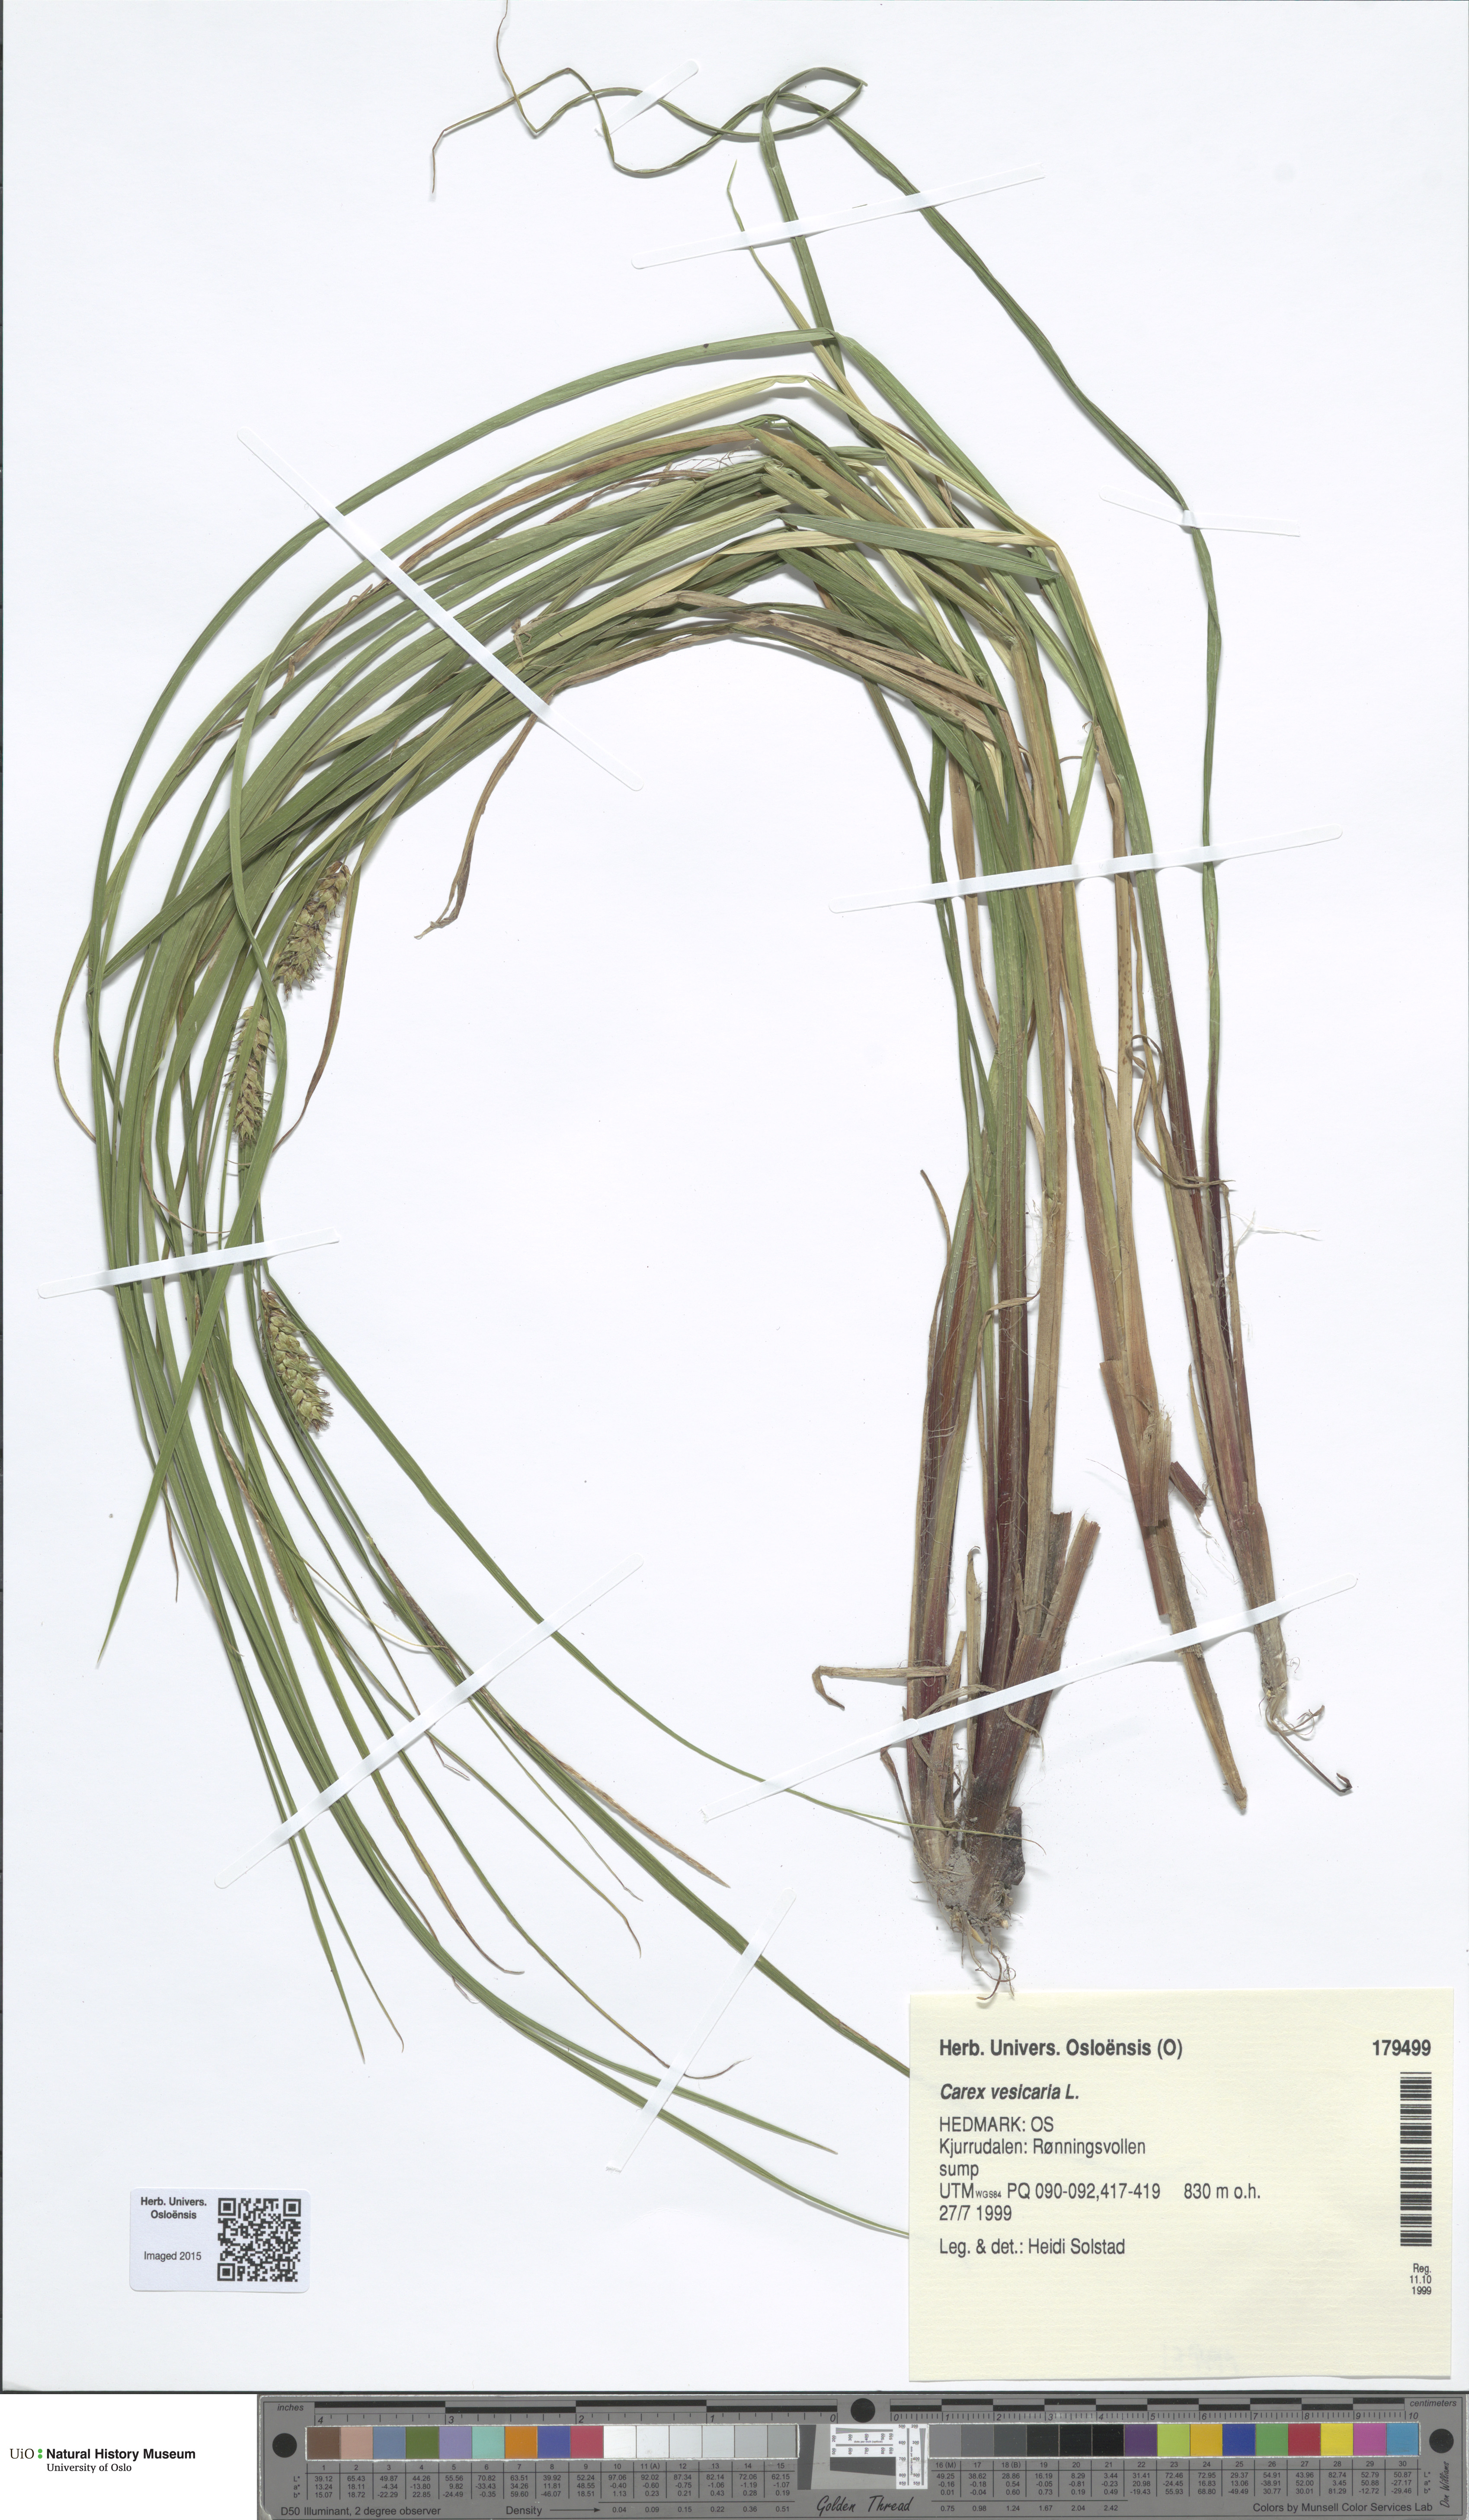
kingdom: Plantae
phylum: Tracheophyta
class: Liliopsida
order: Poales
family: Cyperaceae
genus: Carex
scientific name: Carex vesicaria
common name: Bladder-sedge
